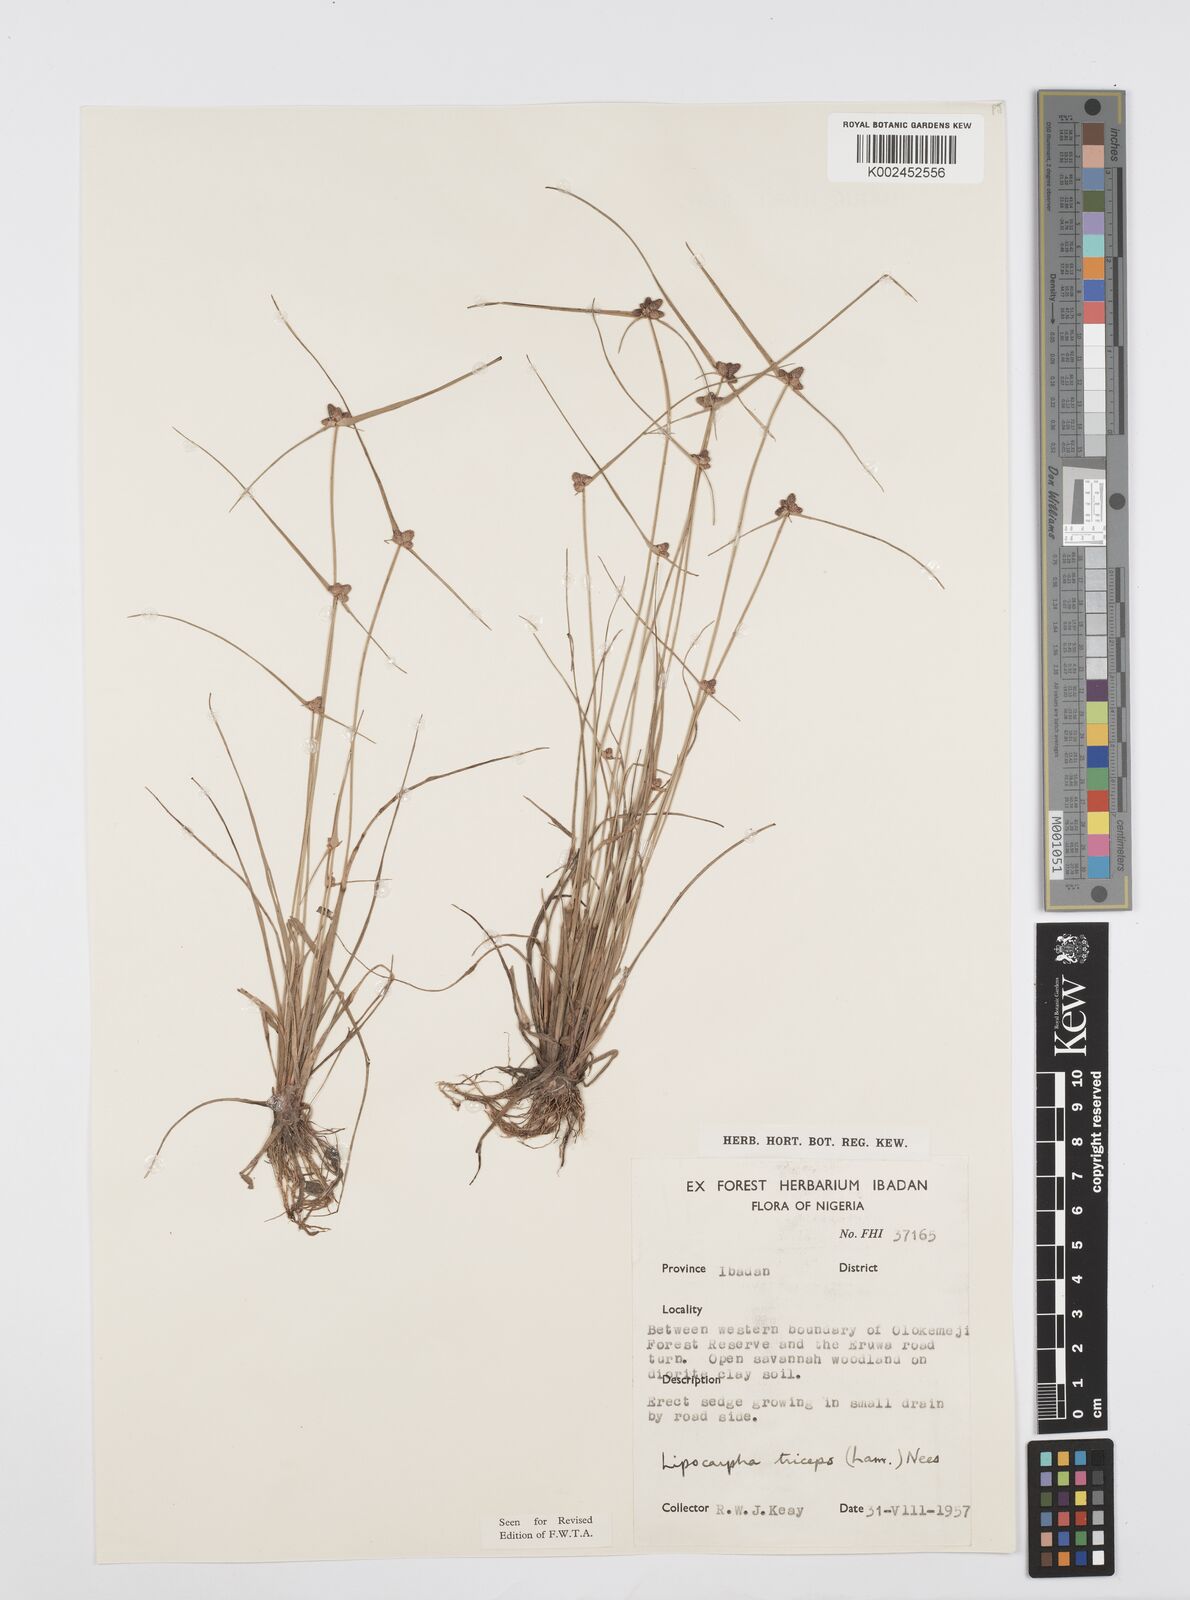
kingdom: Plantae
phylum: Tracheophyta
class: Liliopsida
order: Poales
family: Cyperaceae
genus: Cyperus
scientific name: Cyperus filiformis
